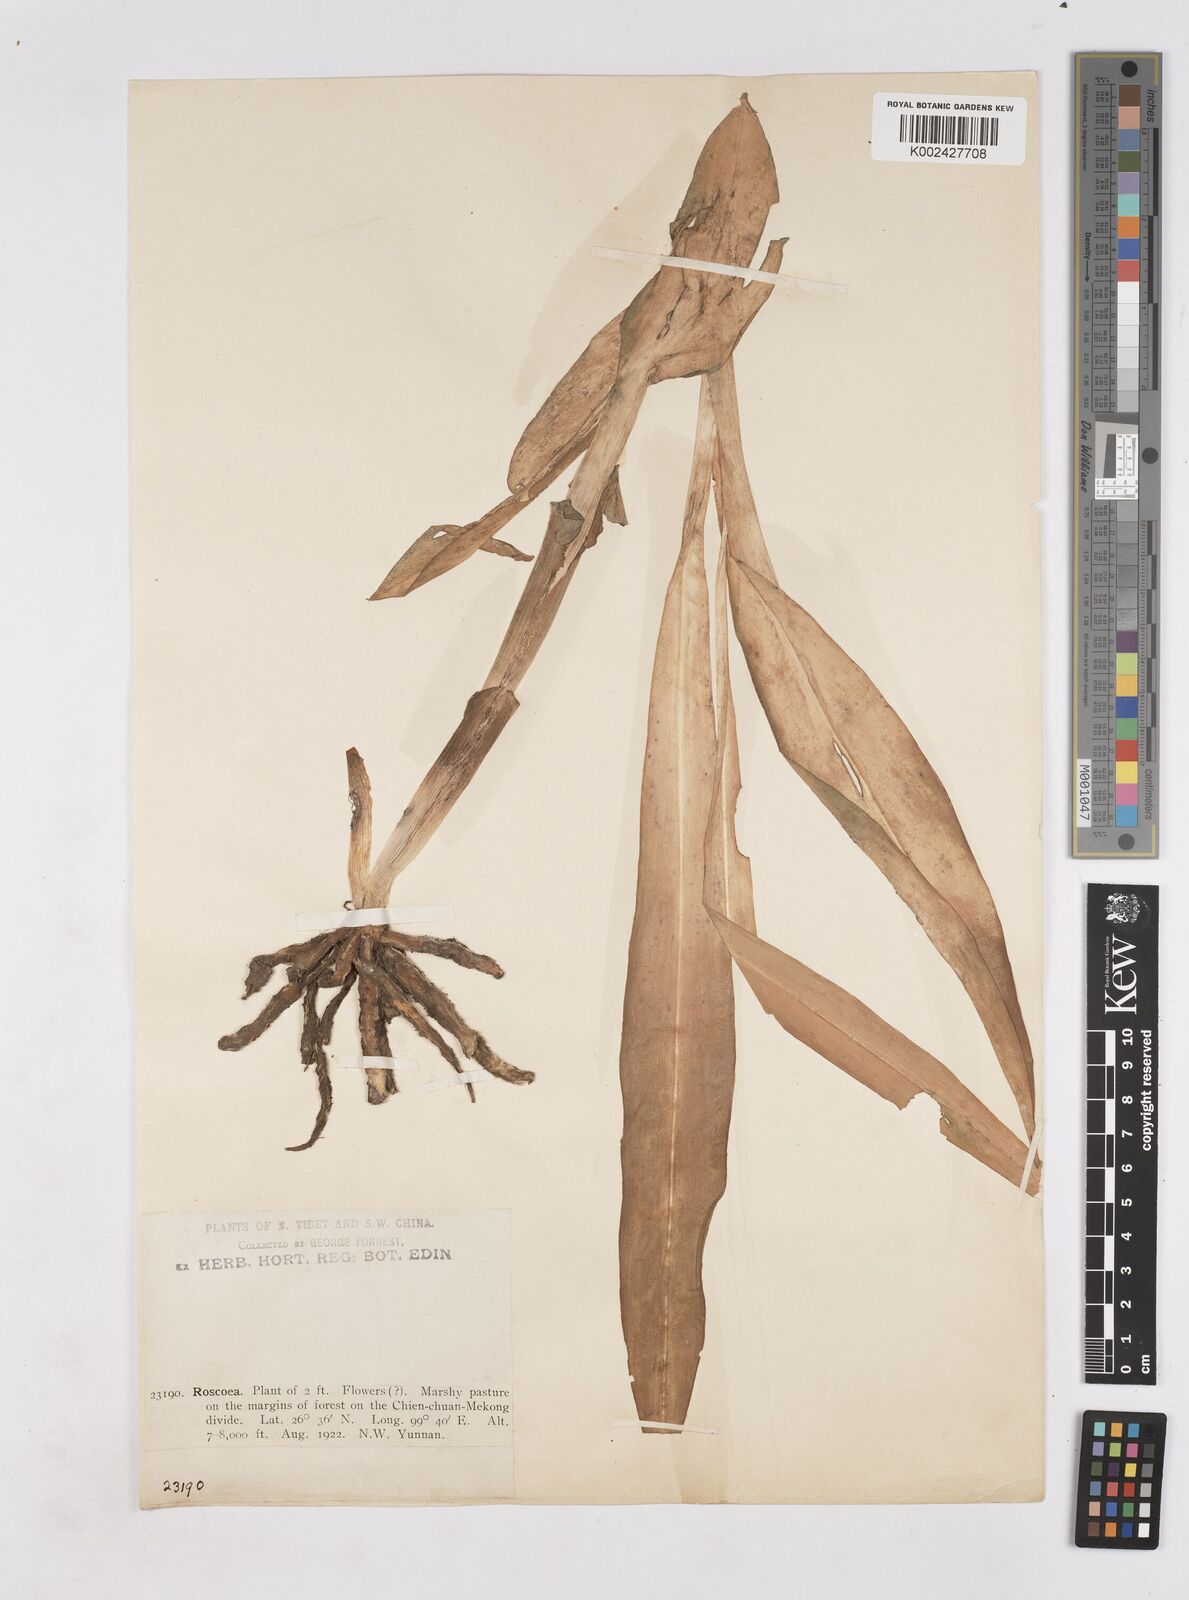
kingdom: Plantae
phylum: Tracheophyta
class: Liliopsida
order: Zingiberales
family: Zingiberaceae
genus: Roscoea
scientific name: Roscoea
